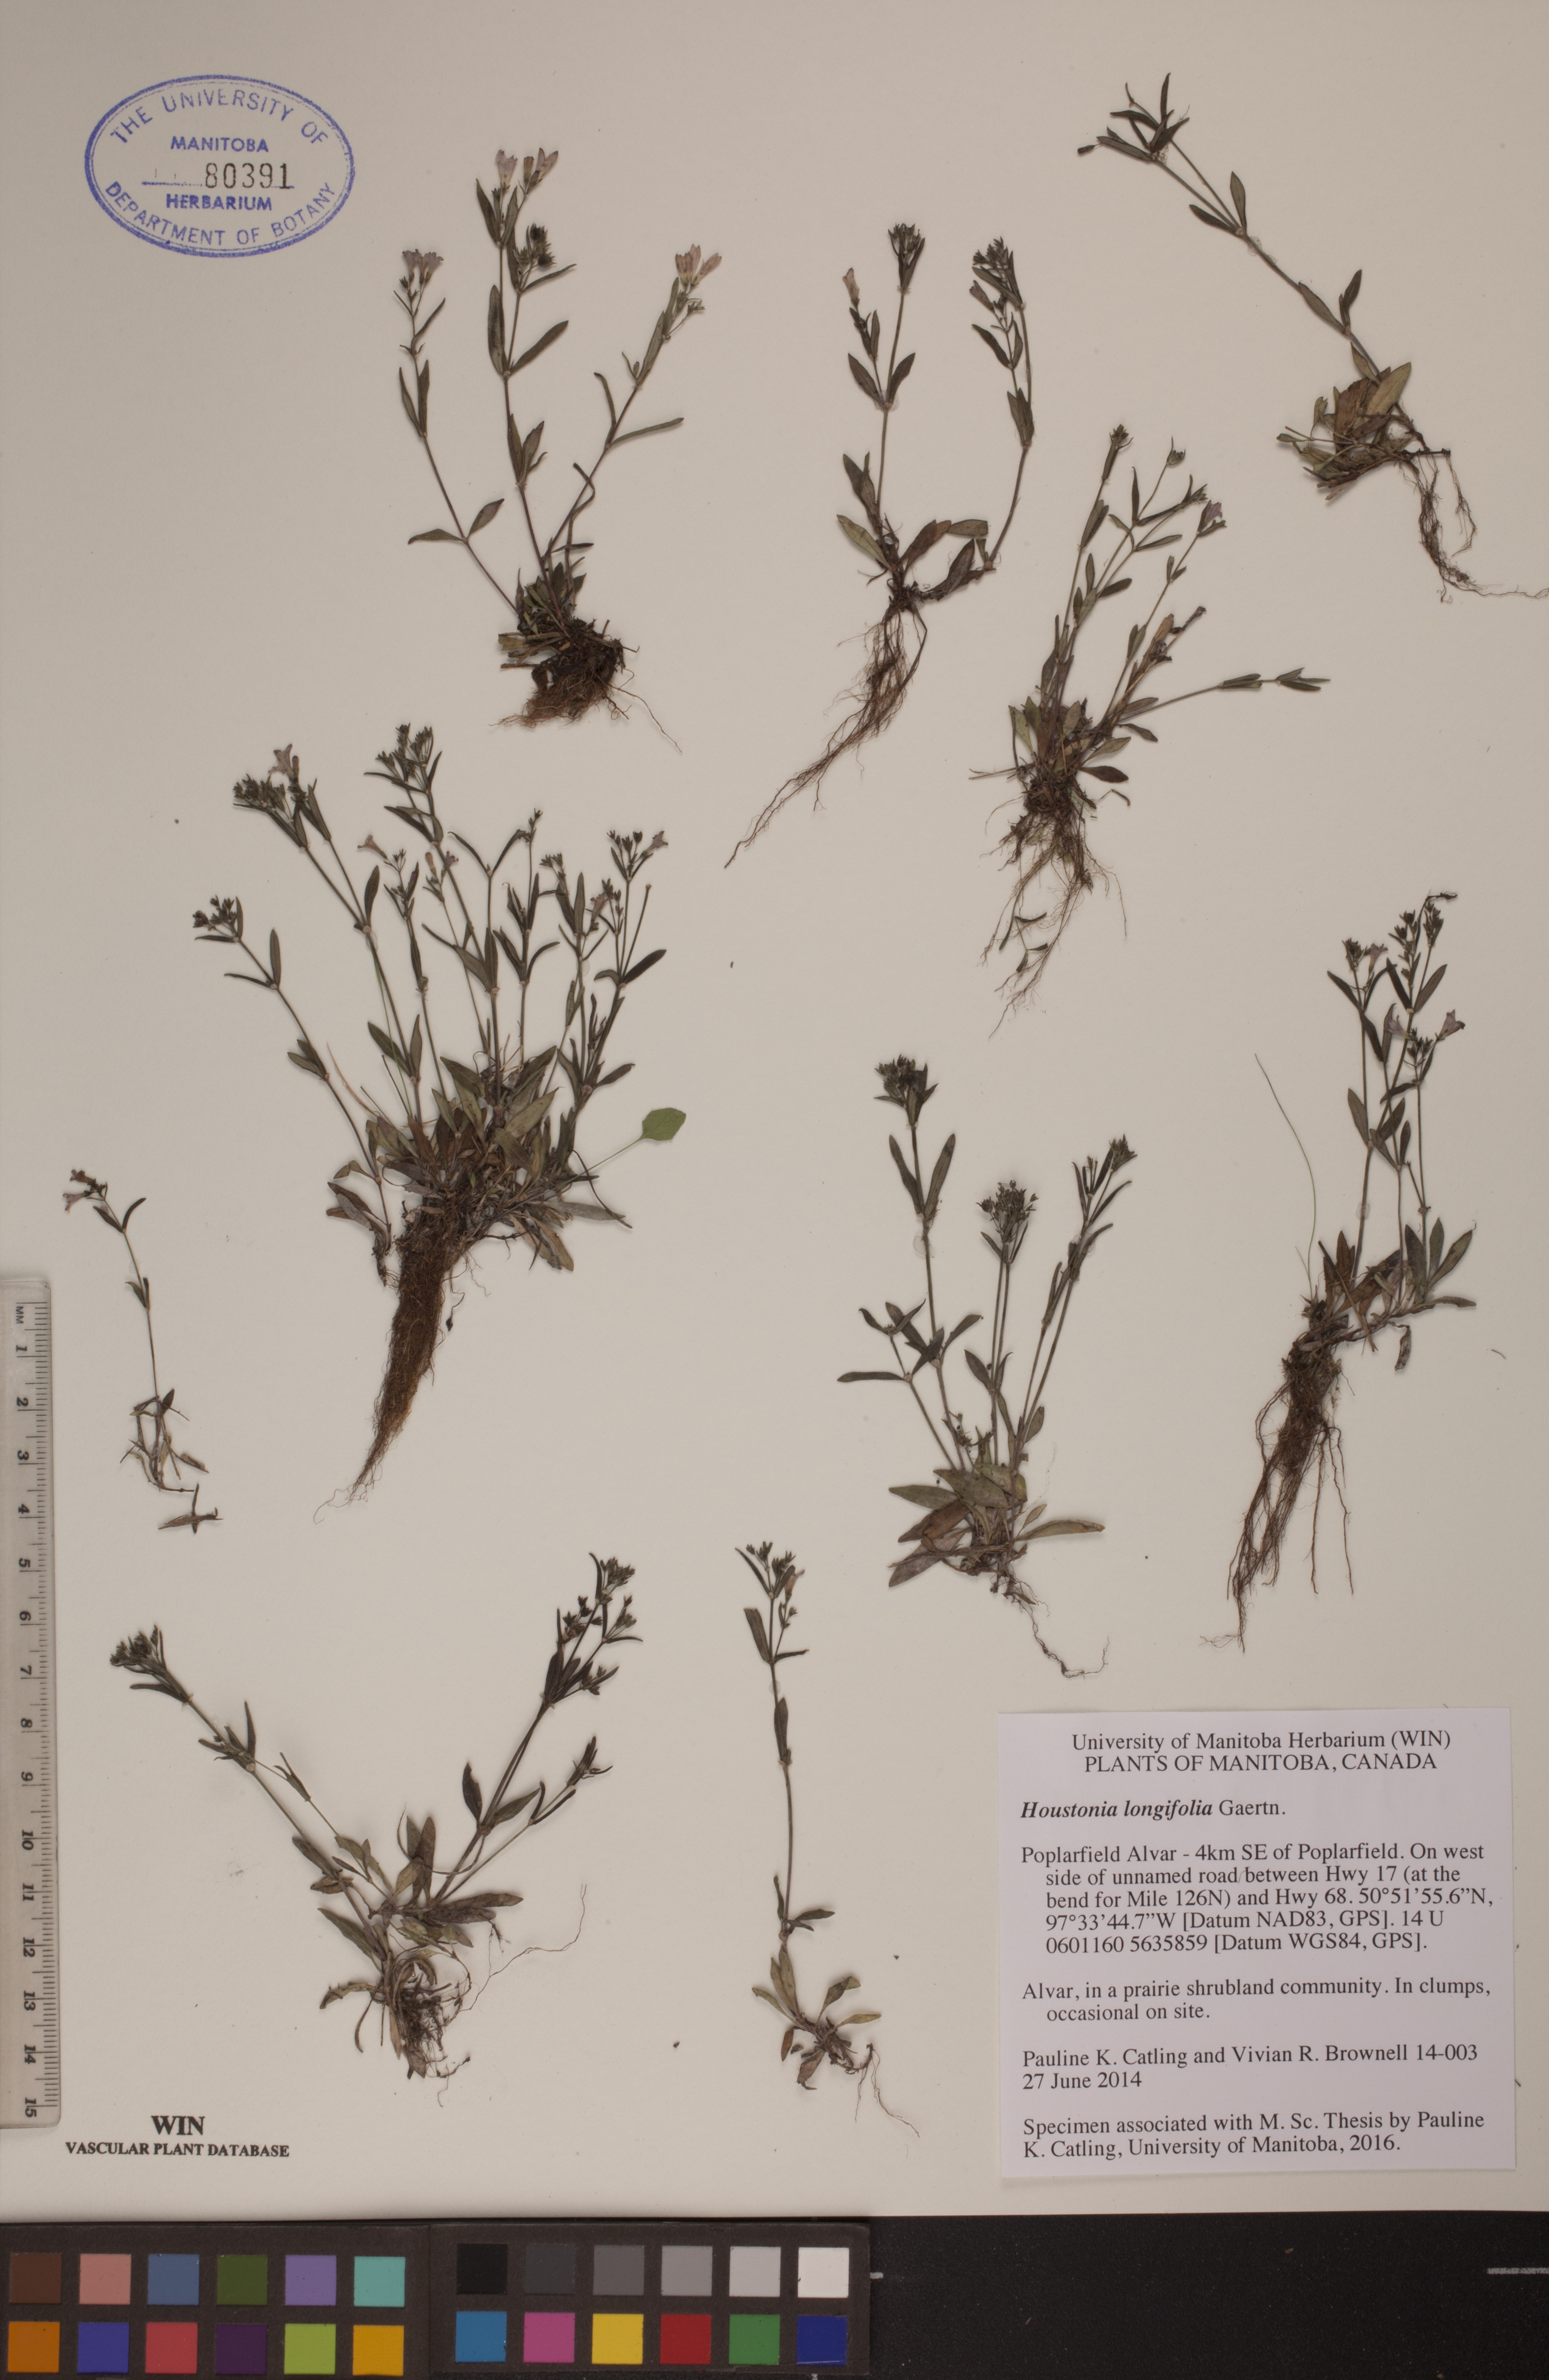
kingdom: Plantae
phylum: Tracheophyta
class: Magnoliopsida
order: Gentianales
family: Rubiaceae
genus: Houstonia
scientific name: Houstonia longifolia
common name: Long-leaved bluets
